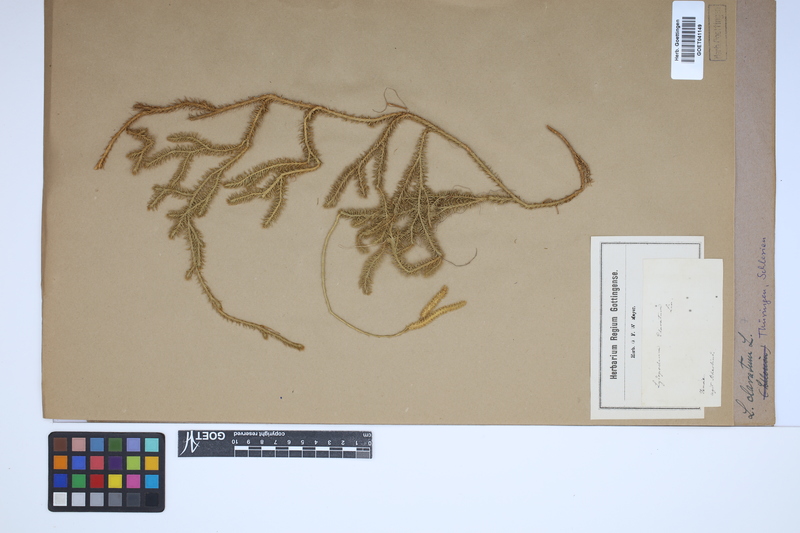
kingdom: Plantae
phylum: Tracheophyta
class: Lycopodiopsida
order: Lycopodiales
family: Lycopodiaceae
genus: Lycopodium
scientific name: Lycopodium clavatum
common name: Stag's-horn clubmoss
